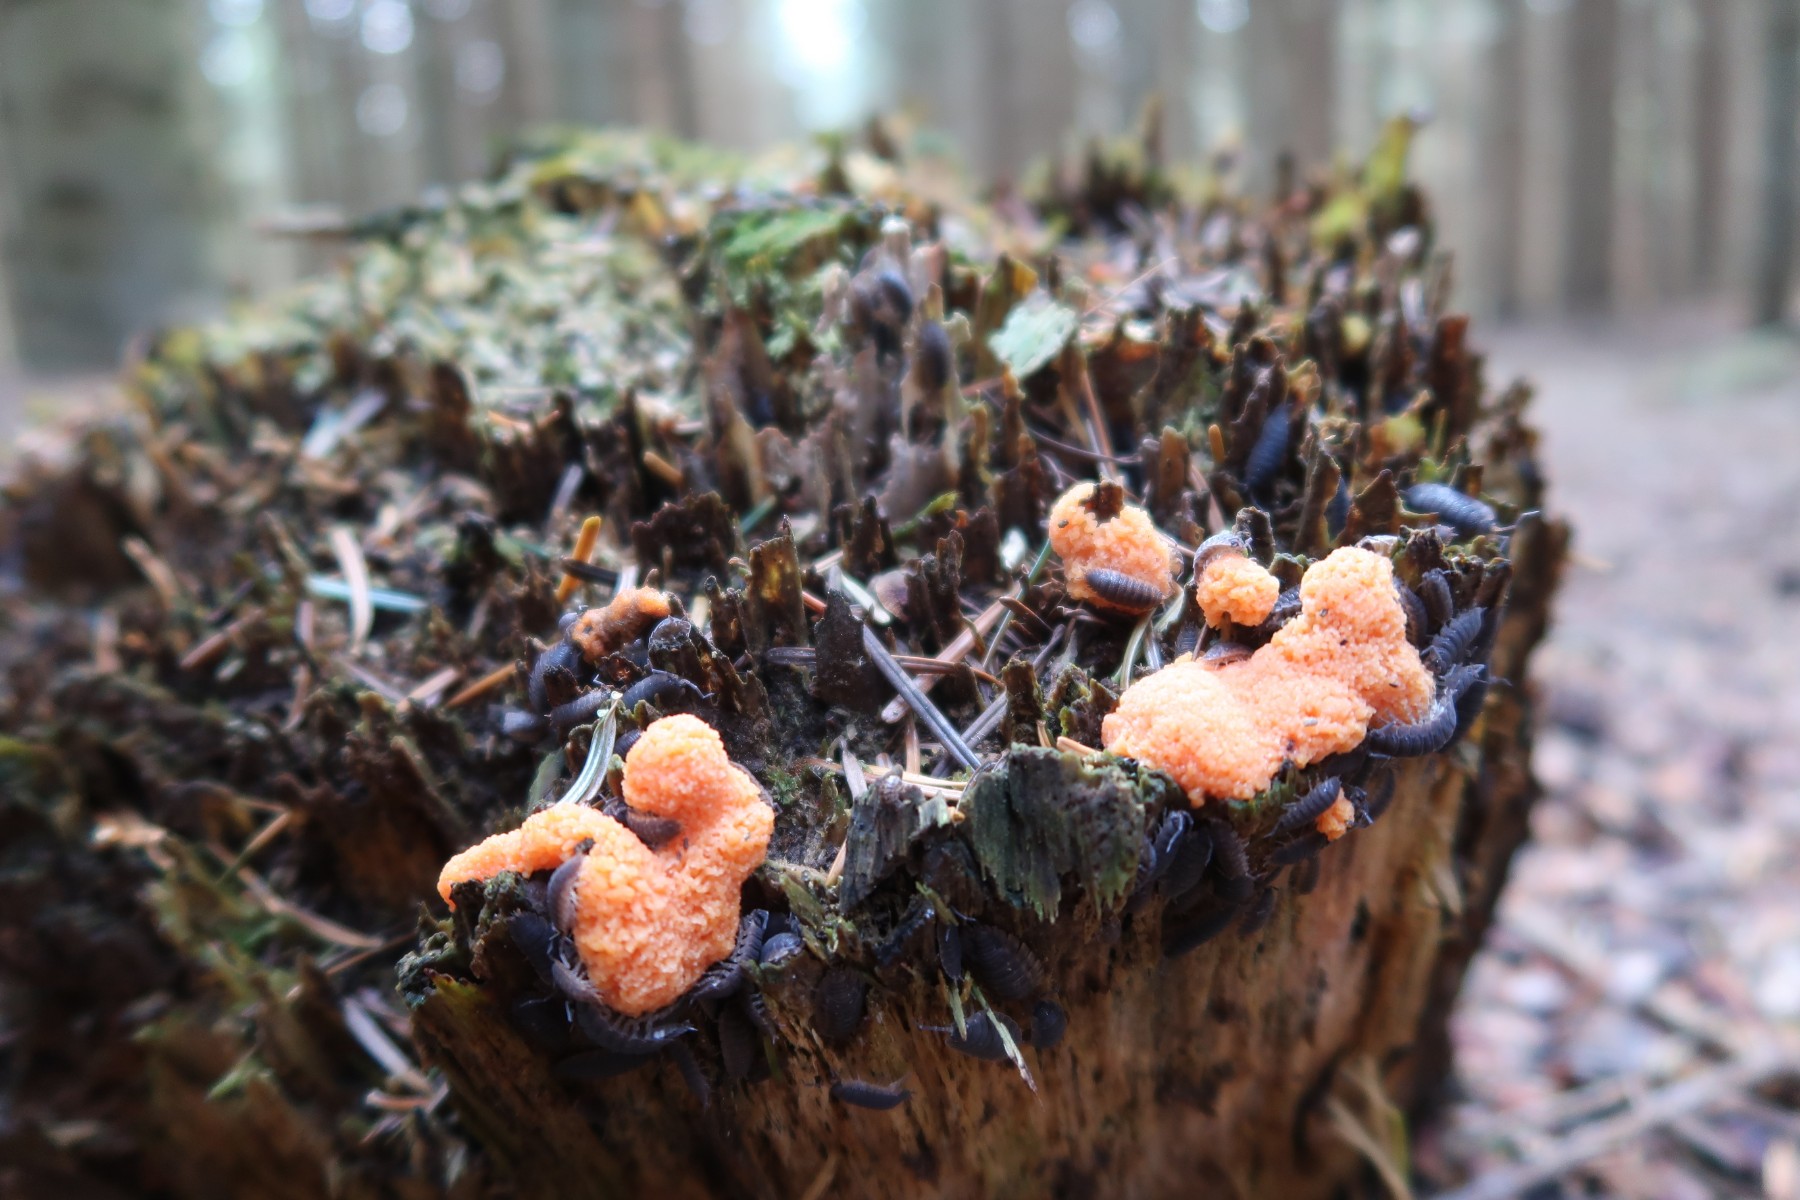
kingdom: Protozoa
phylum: Mycetozoa
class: Myxomycetes
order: Cribrariales
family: Tubiferaceae
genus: Tubifera
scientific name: Tubifera ferruginosa
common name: kanel-støvrør
